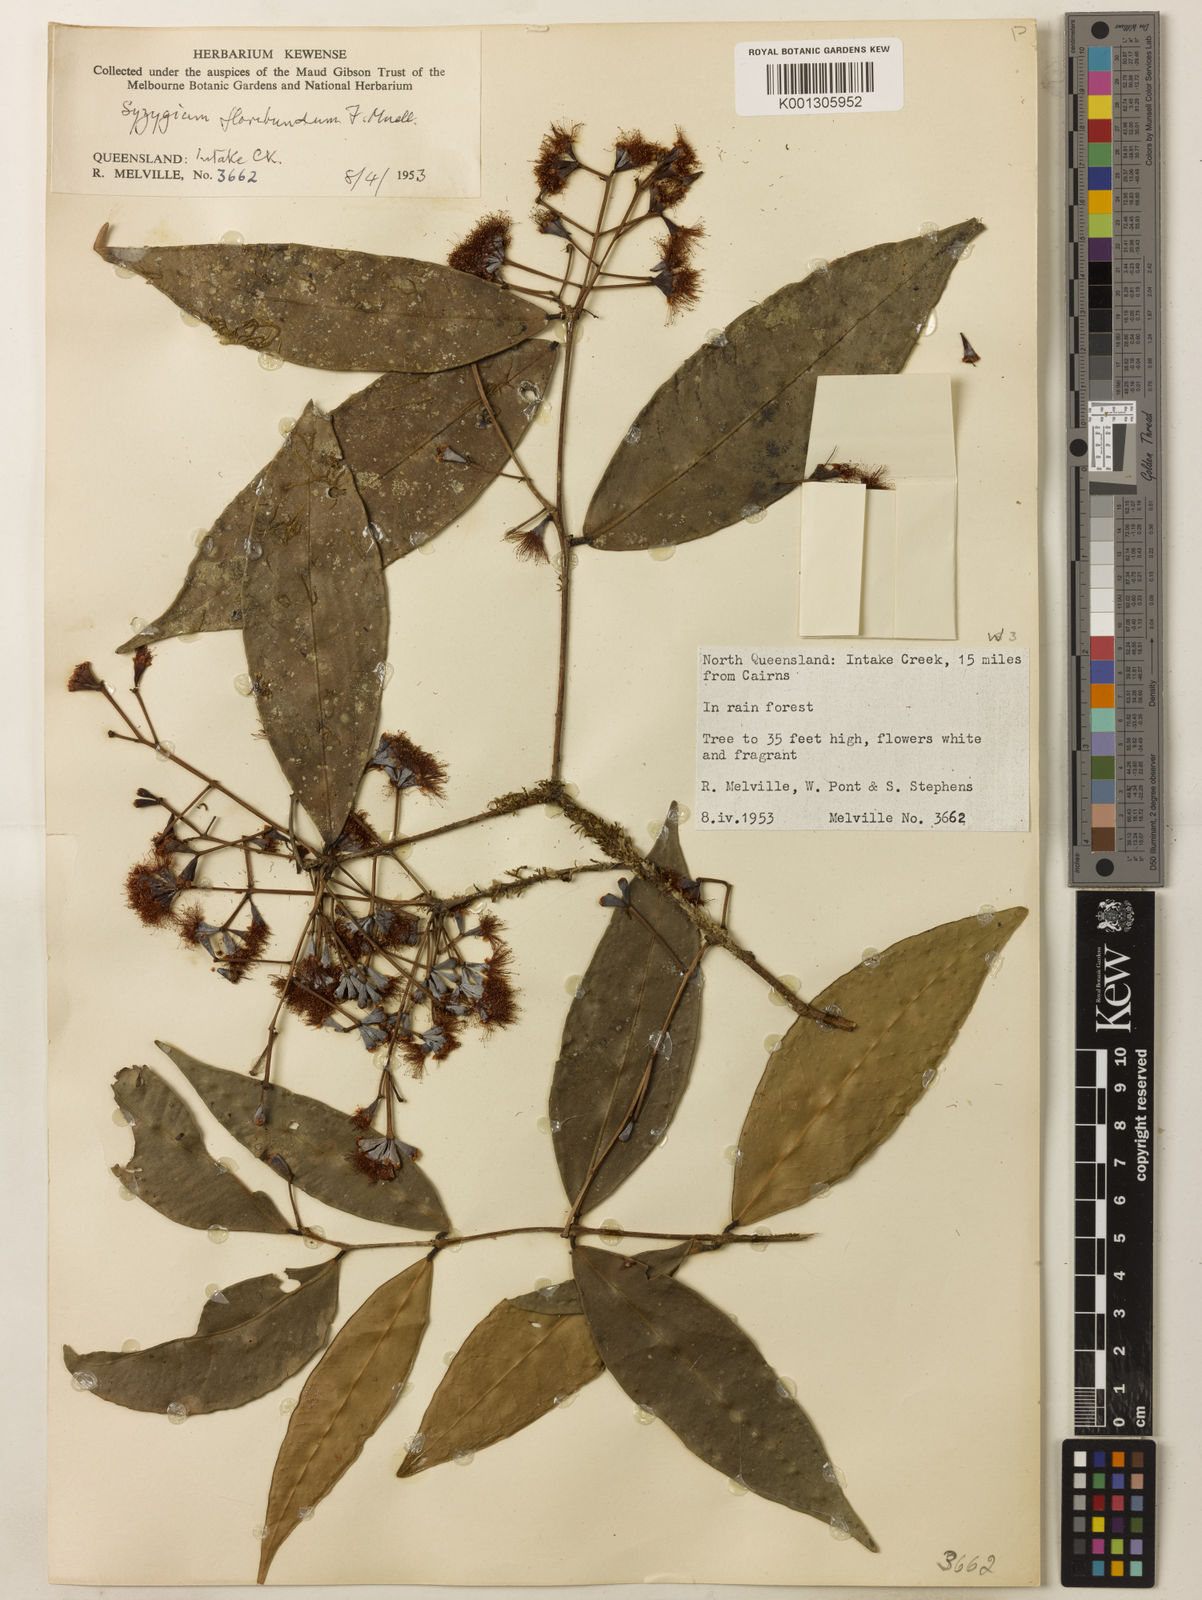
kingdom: Plantae
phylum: Tracheophyta
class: Magnoliopsida
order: Myrtales
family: Myrtaceae
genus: Syzygium
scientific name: Syzygium floribundum
